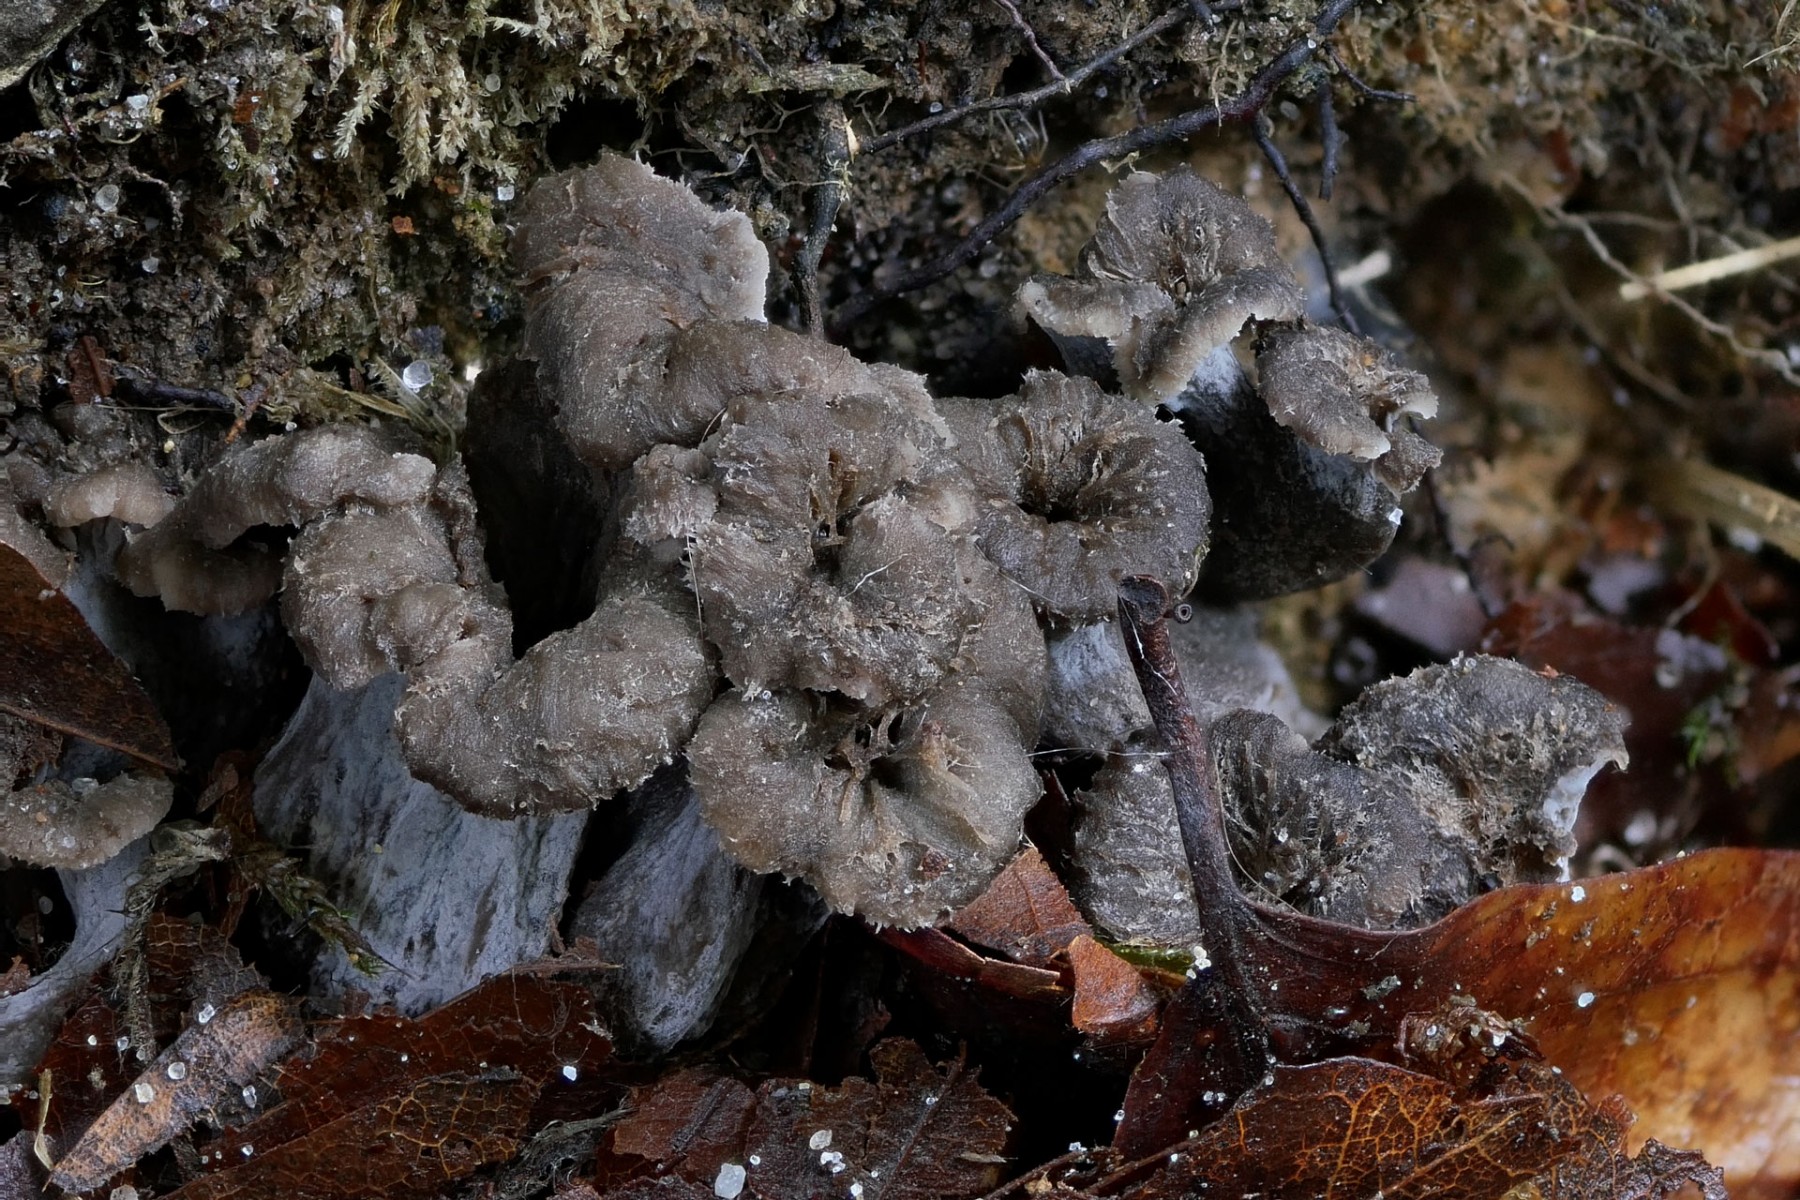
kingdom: Fungi
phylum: Basidiomycota
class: Agaricomycetes
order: Cantharellales
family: Hydnaceae
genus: Cantharellus
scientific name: Cantharellus cinereus
